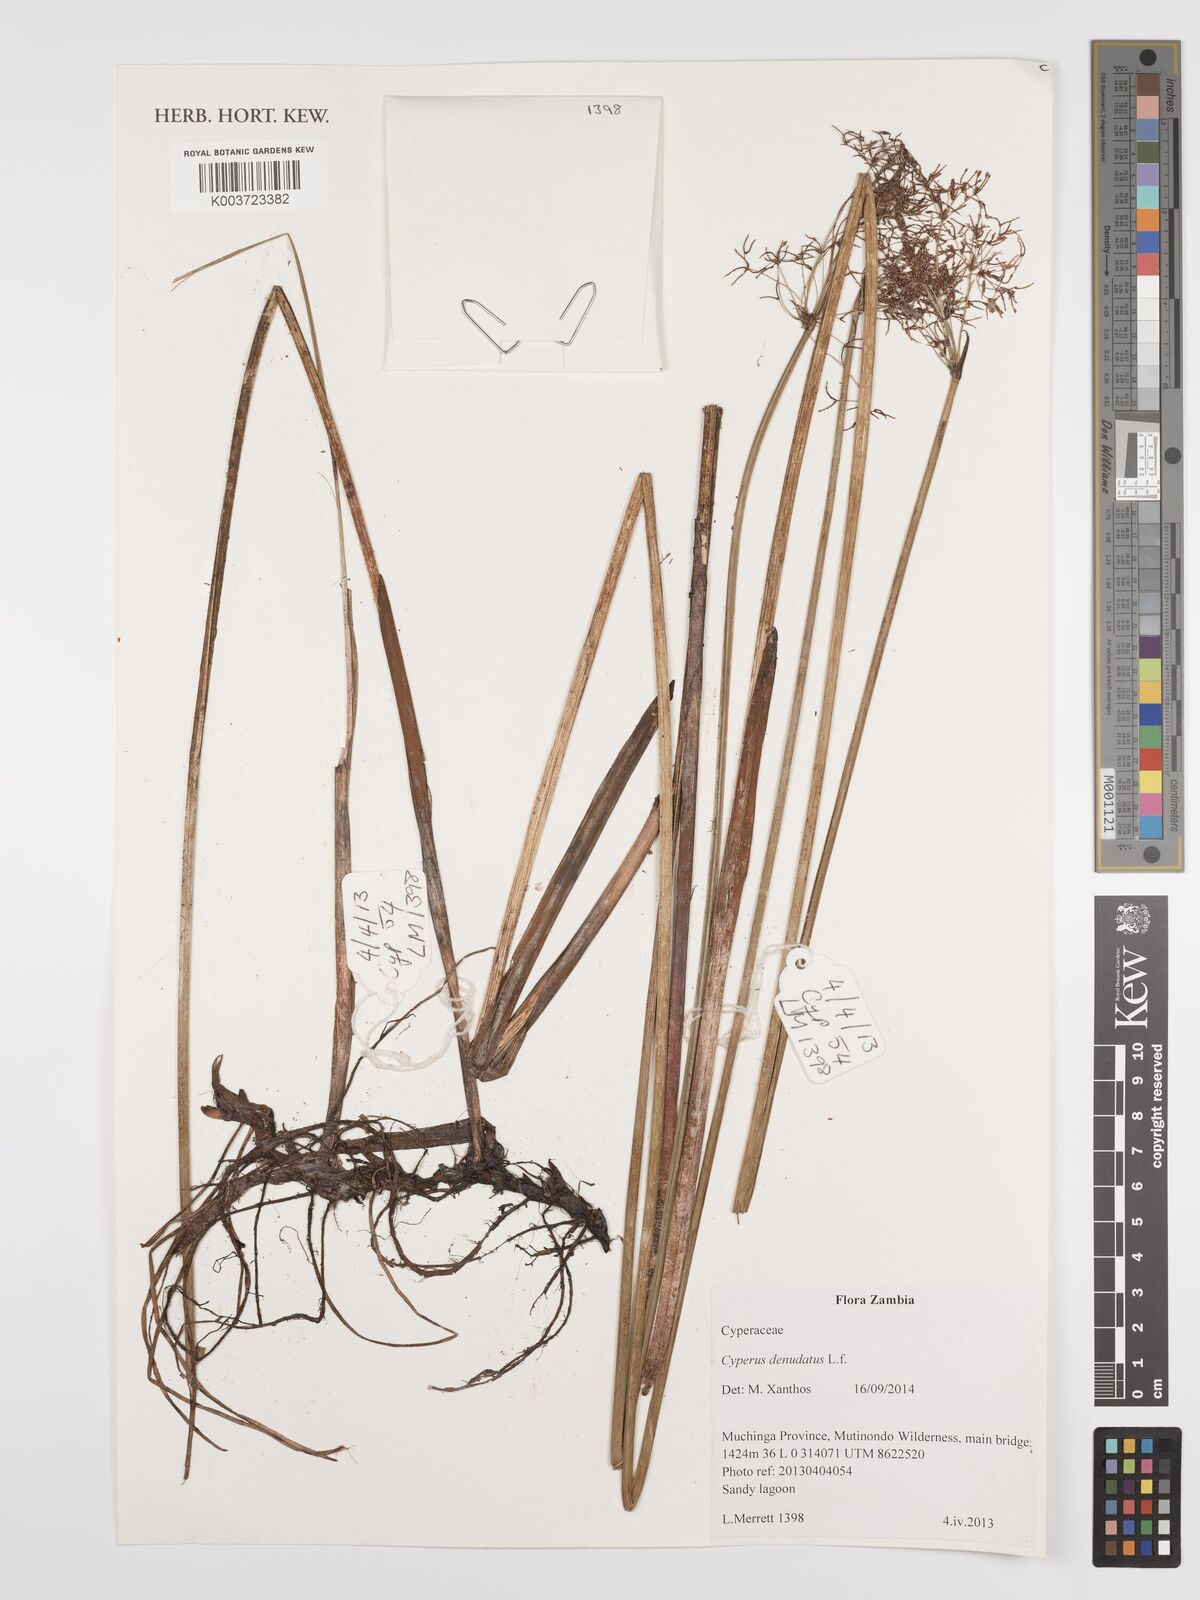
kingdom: Plantae
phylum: Tracheophyta
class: Liliopsida
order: Poales
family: Cyperaceae
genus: Cyperus
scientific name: Cyperus denudatus
